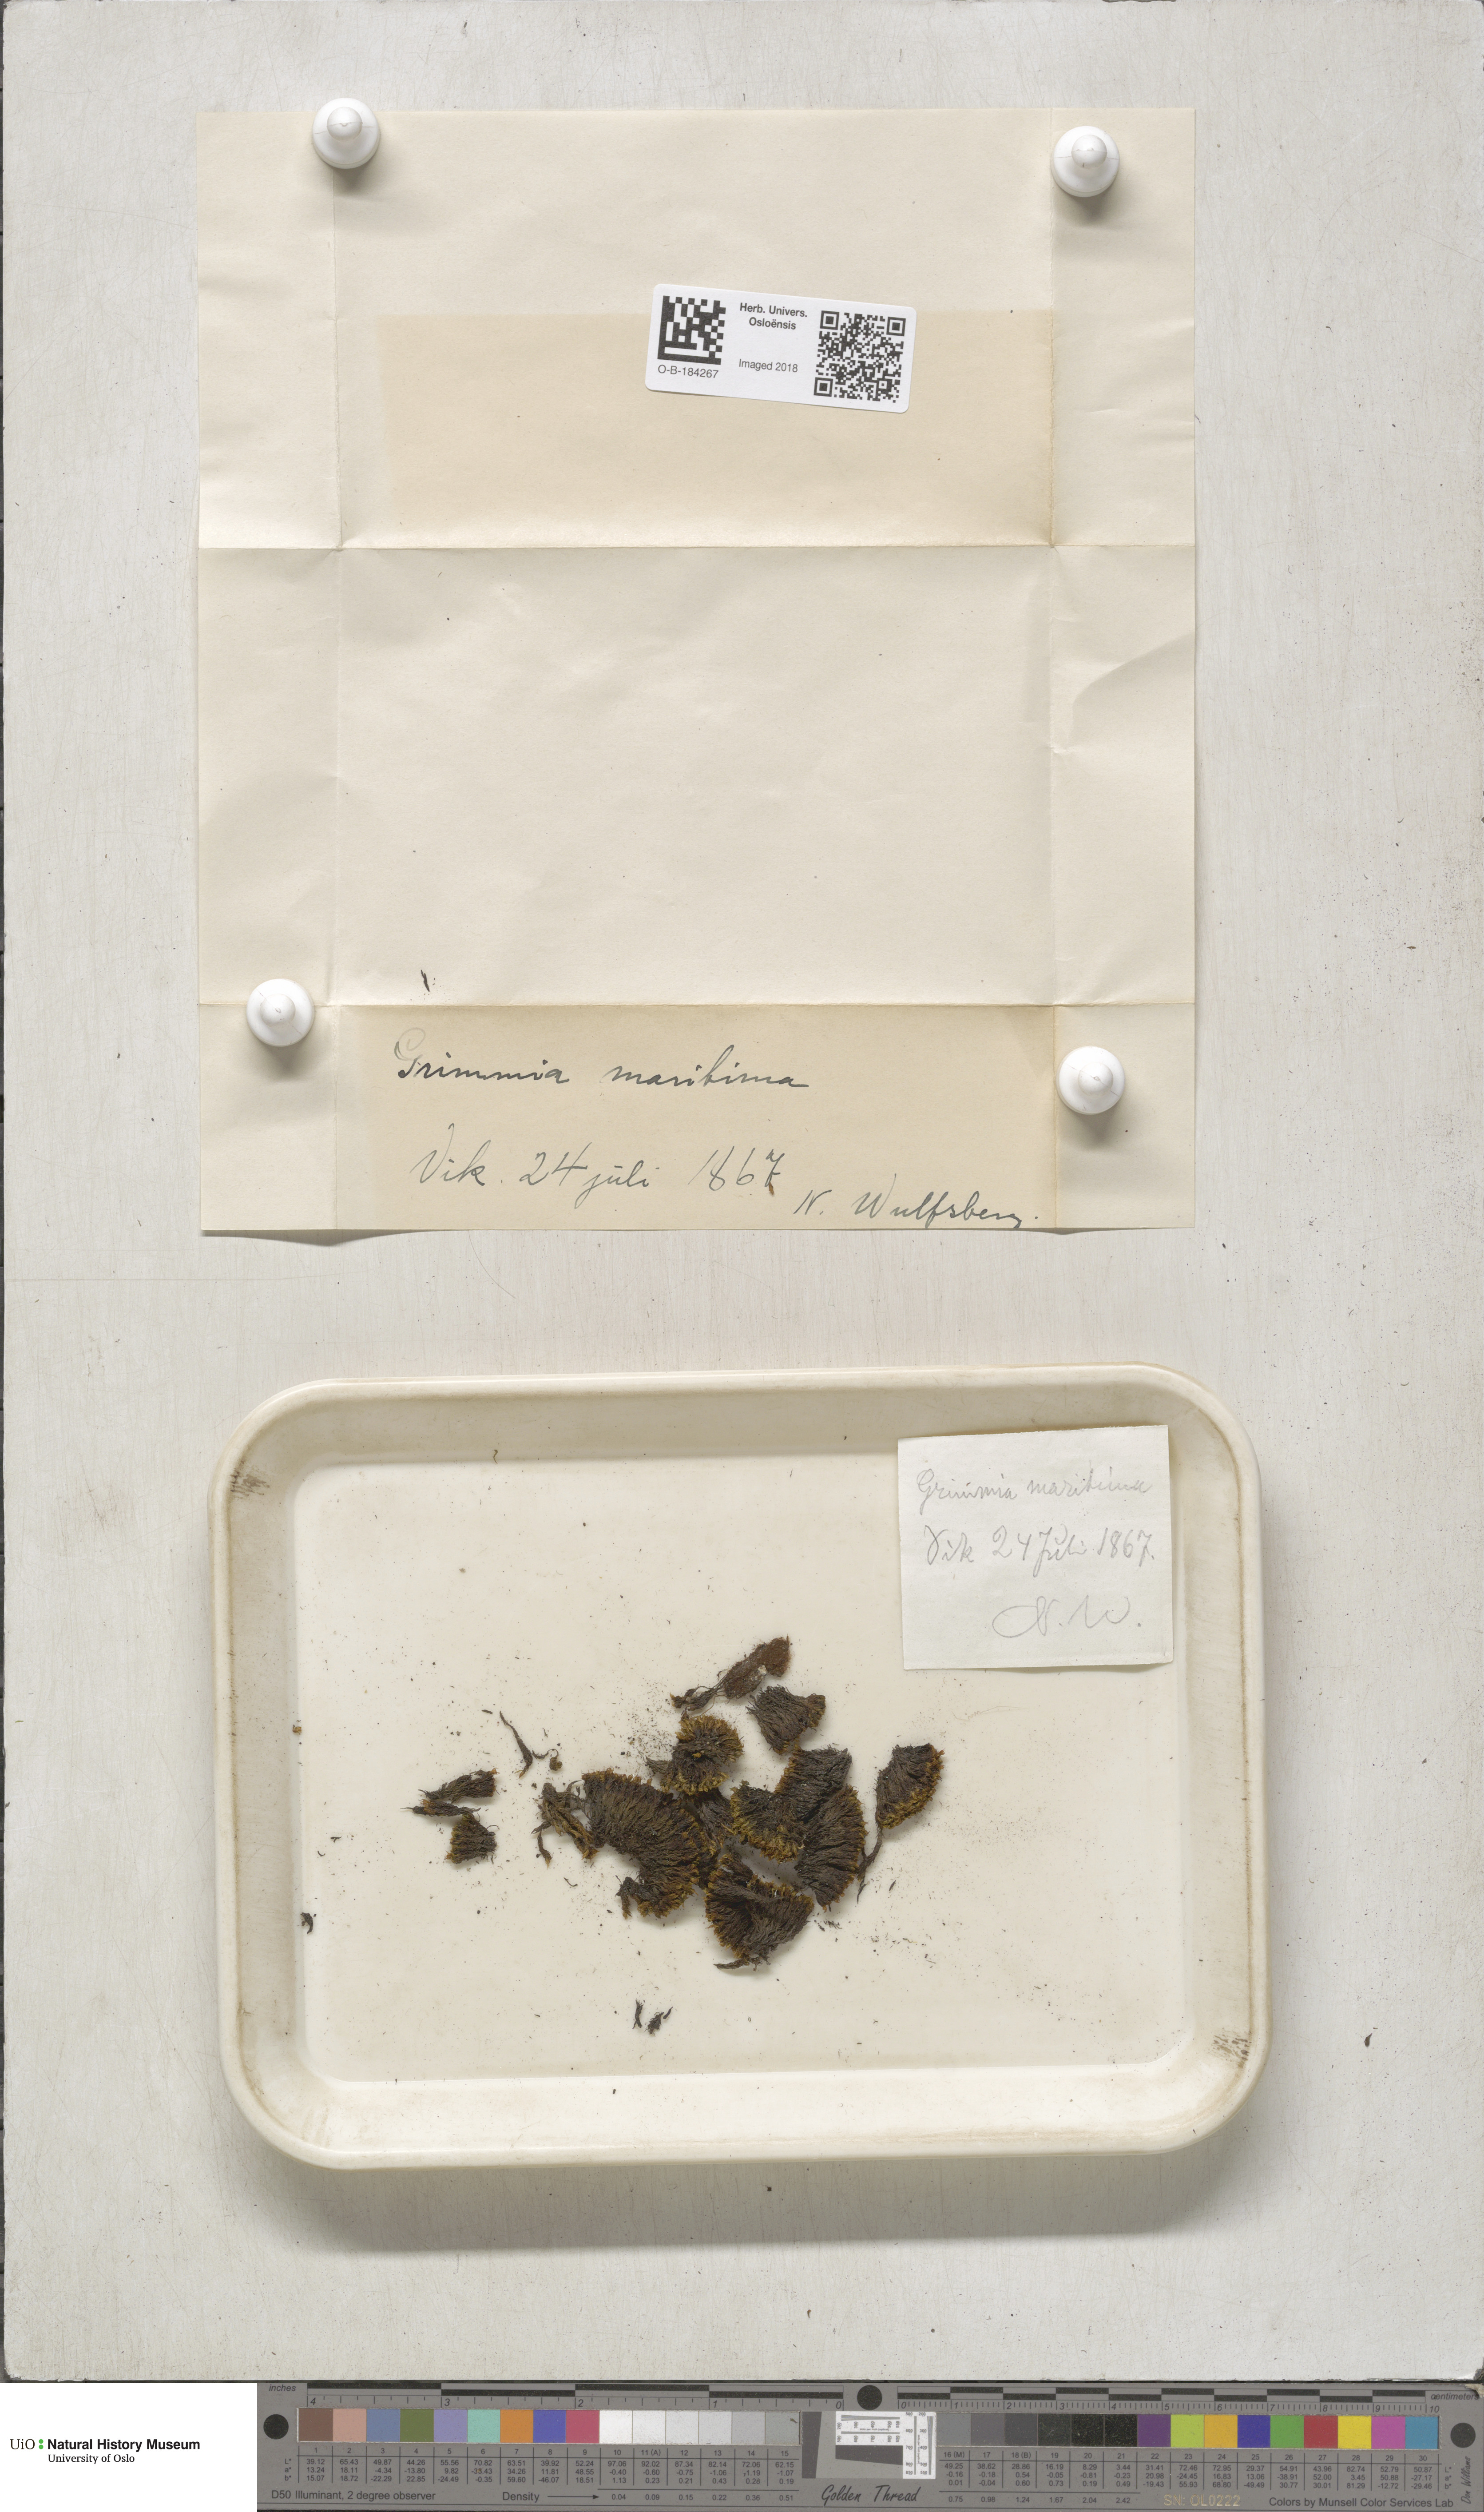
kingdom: Plantae
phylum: Bryophyta
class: Bryopsida
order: Grimmiales
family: Grimmiaceae
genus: Schistidium
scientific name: Schistidium maritimum
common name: Seaside bloom moss
